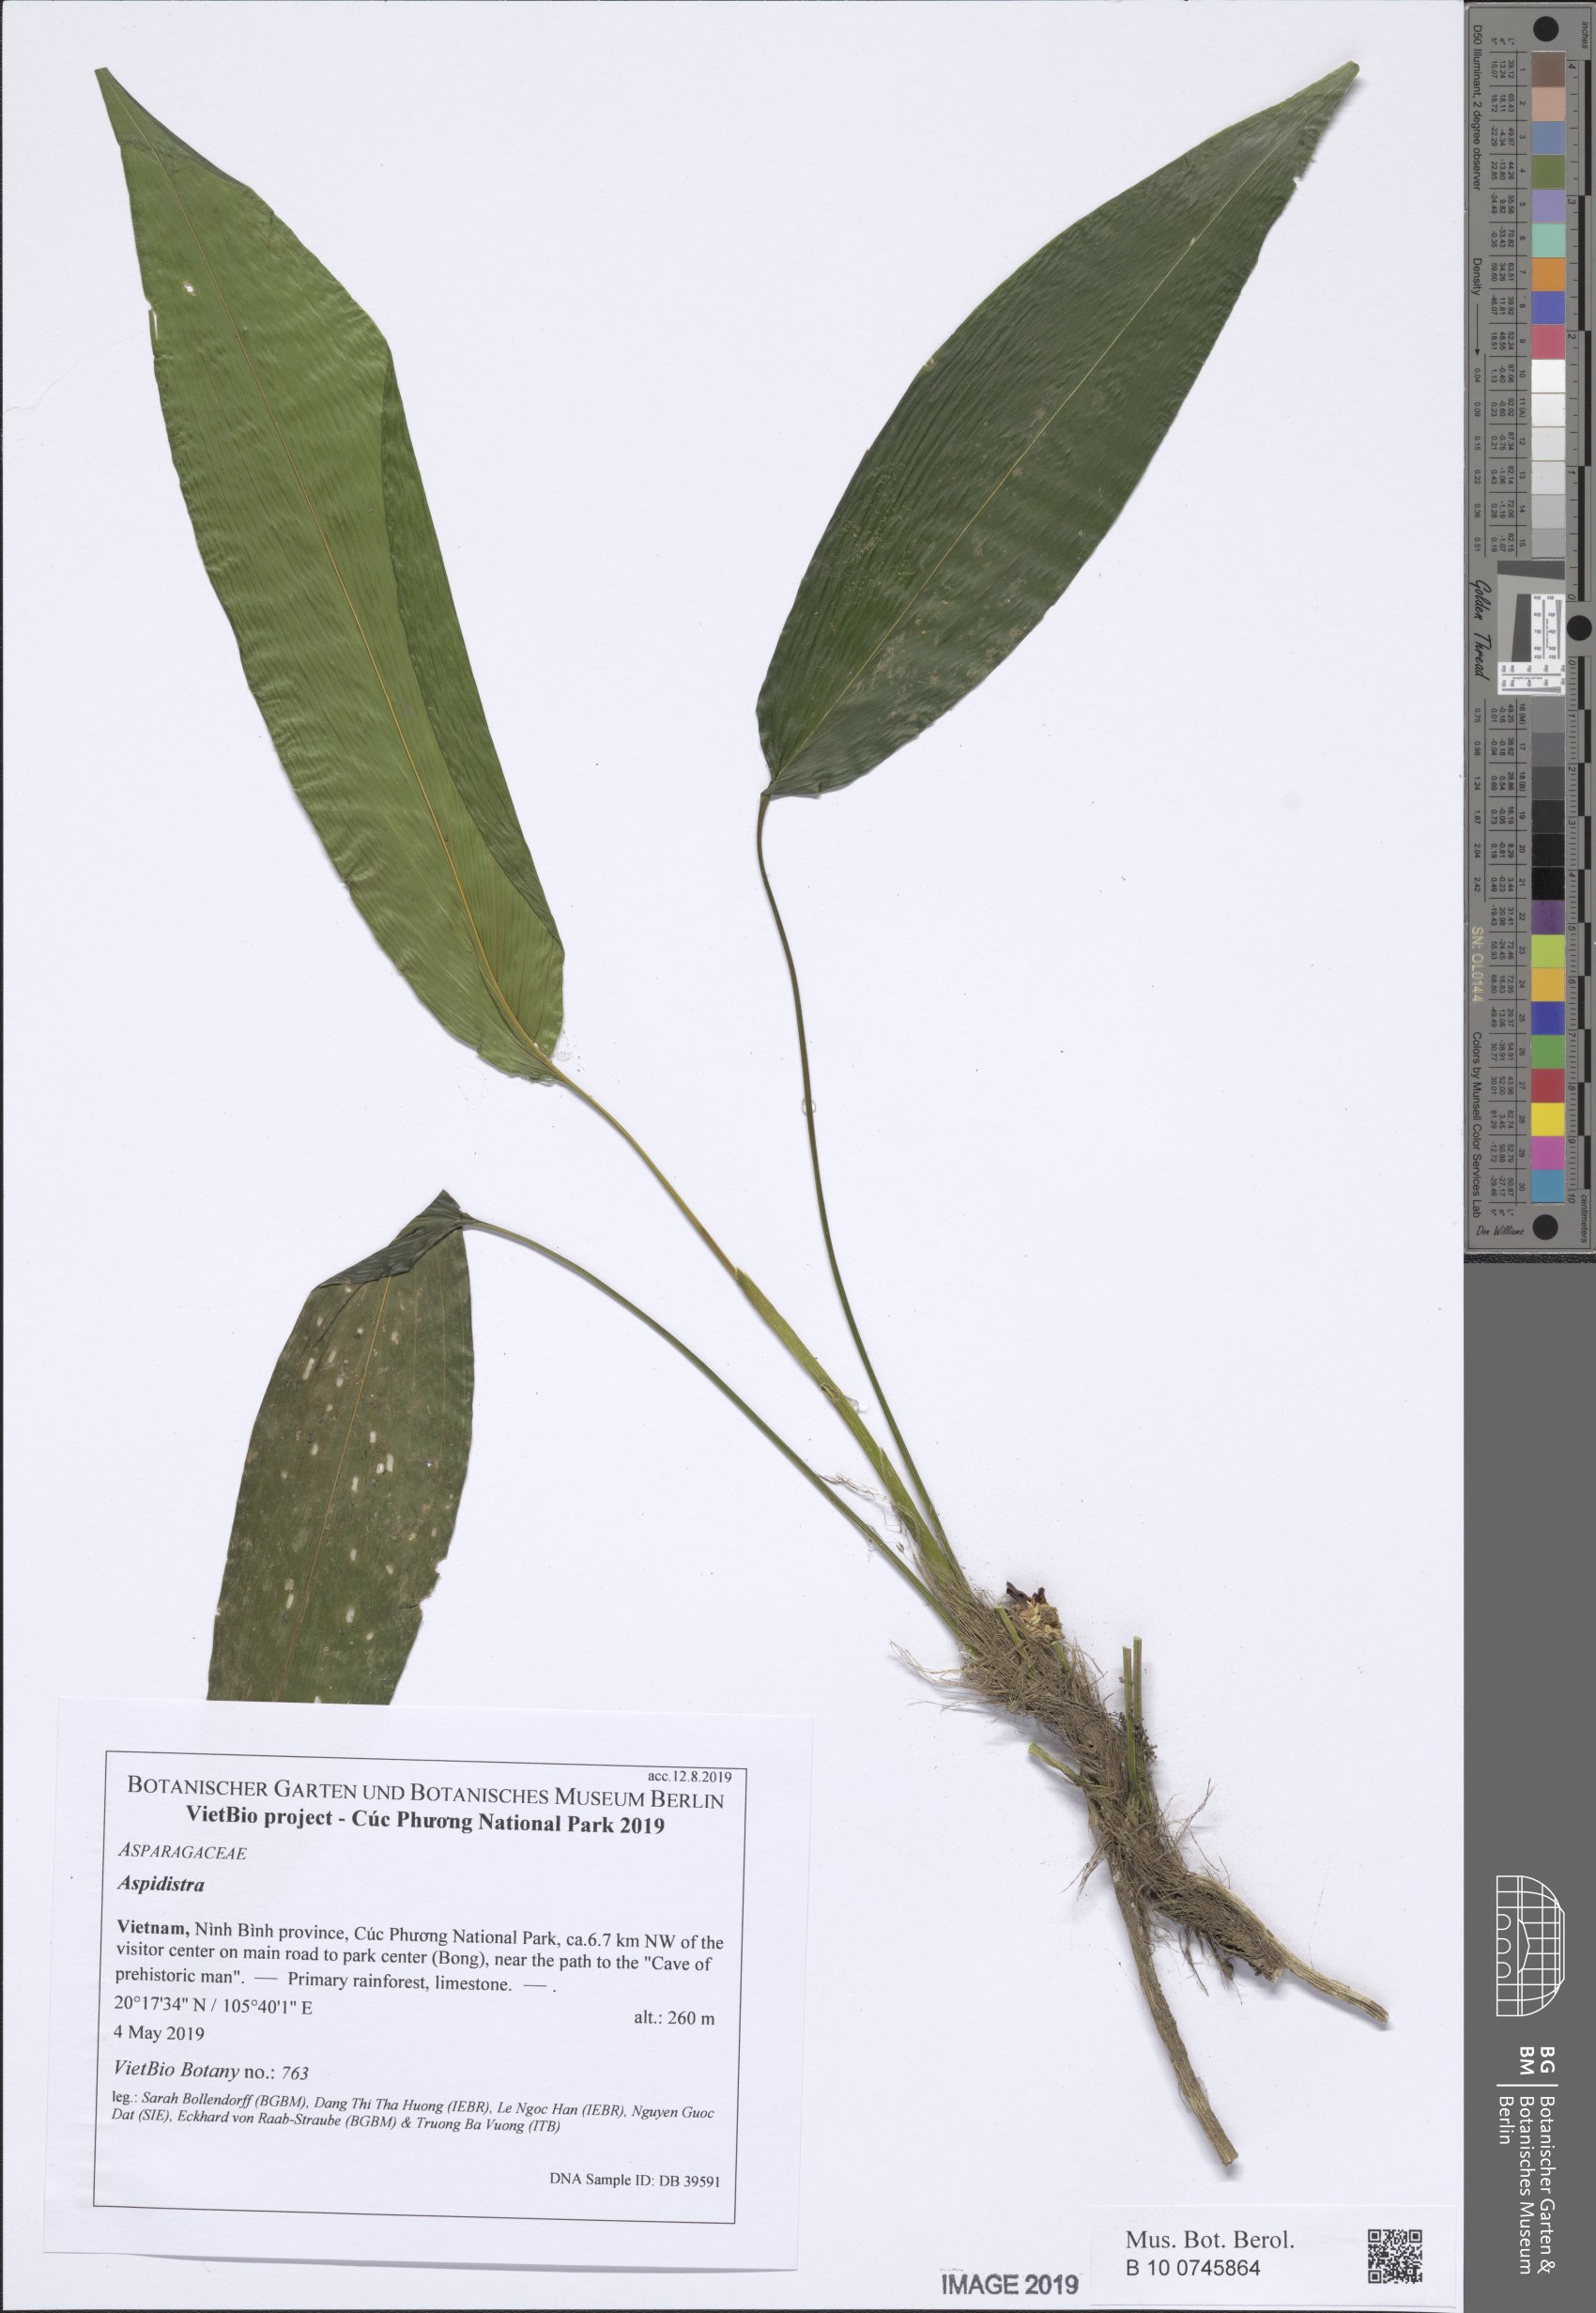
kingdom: Plantae
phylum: Tracheophyta
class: Liliopsida
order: Asparagales
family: Asparagaceae
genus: Aspidistra
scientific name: Aspidistra lateralis
